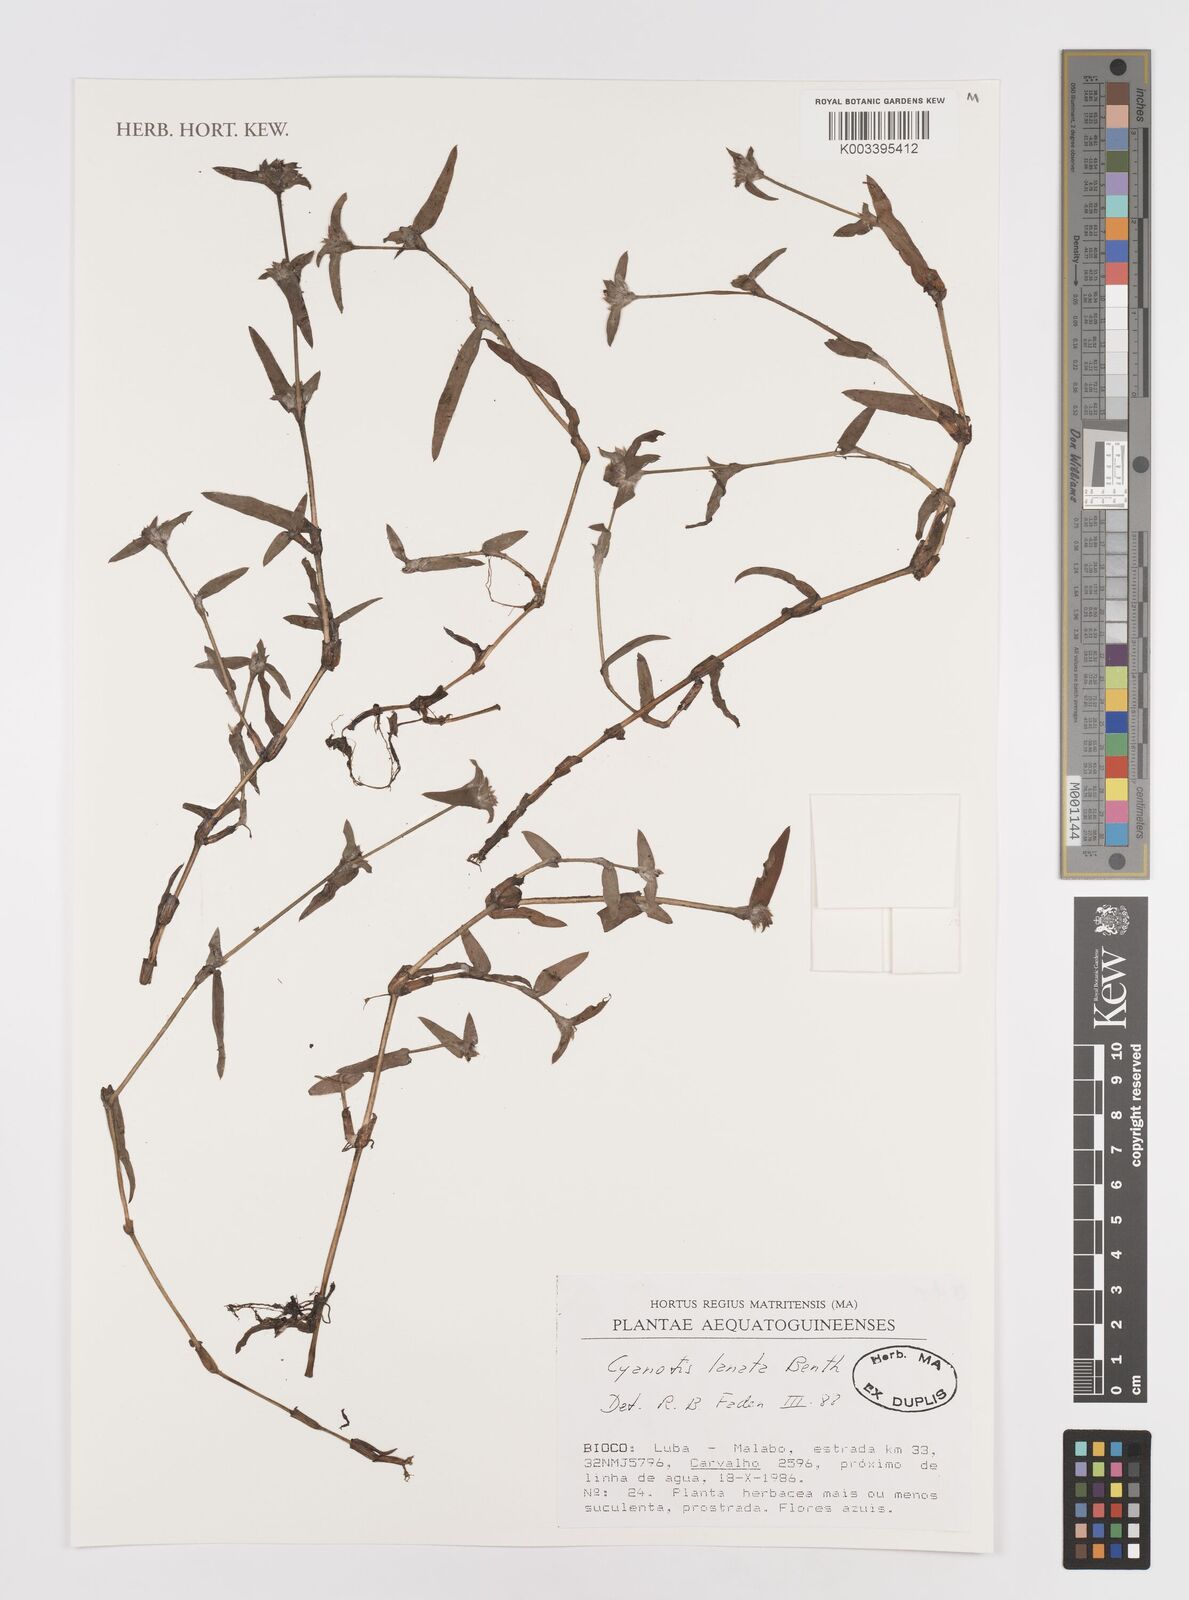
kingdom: Plantae
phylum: Tracheophyta
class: Liliopsida
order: Commelinales
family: Commelinaceae
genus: Cyanotis
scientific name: Cyanotis lanata
